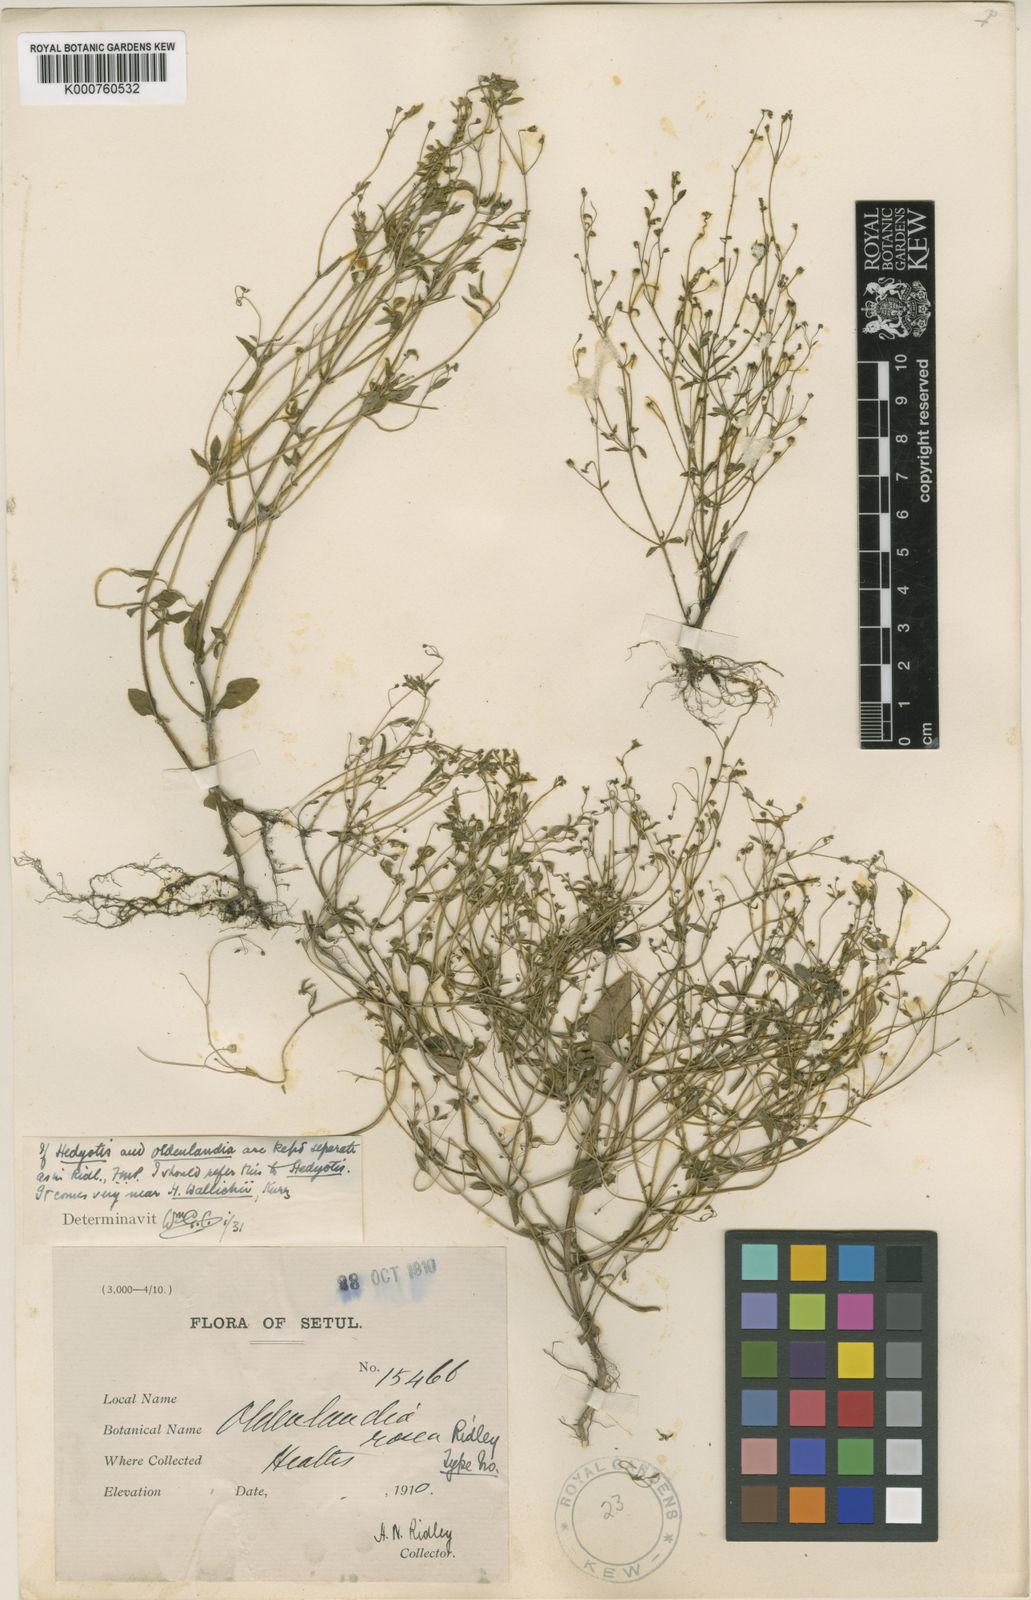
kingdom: Plantae
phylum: Tracheophyta
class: Magnoliopsida
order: Gentianales
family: Rubiaceae
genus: Hedyotis
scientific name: Hedyotis kurzii
